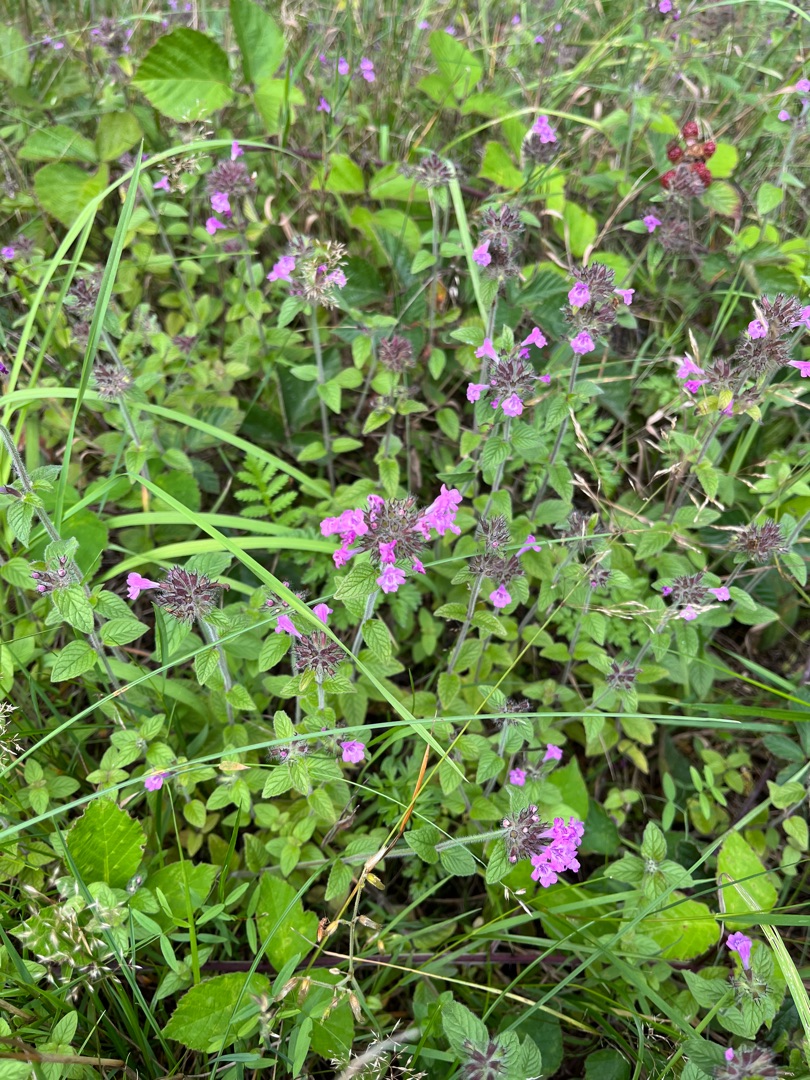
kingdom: Plantae
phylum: Tracheophyta
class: Magnoliopsida
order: Lamiales
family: Lamiaceae
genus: Clinopodium
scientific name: Clinopodium vulgare
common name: Kransbørste
